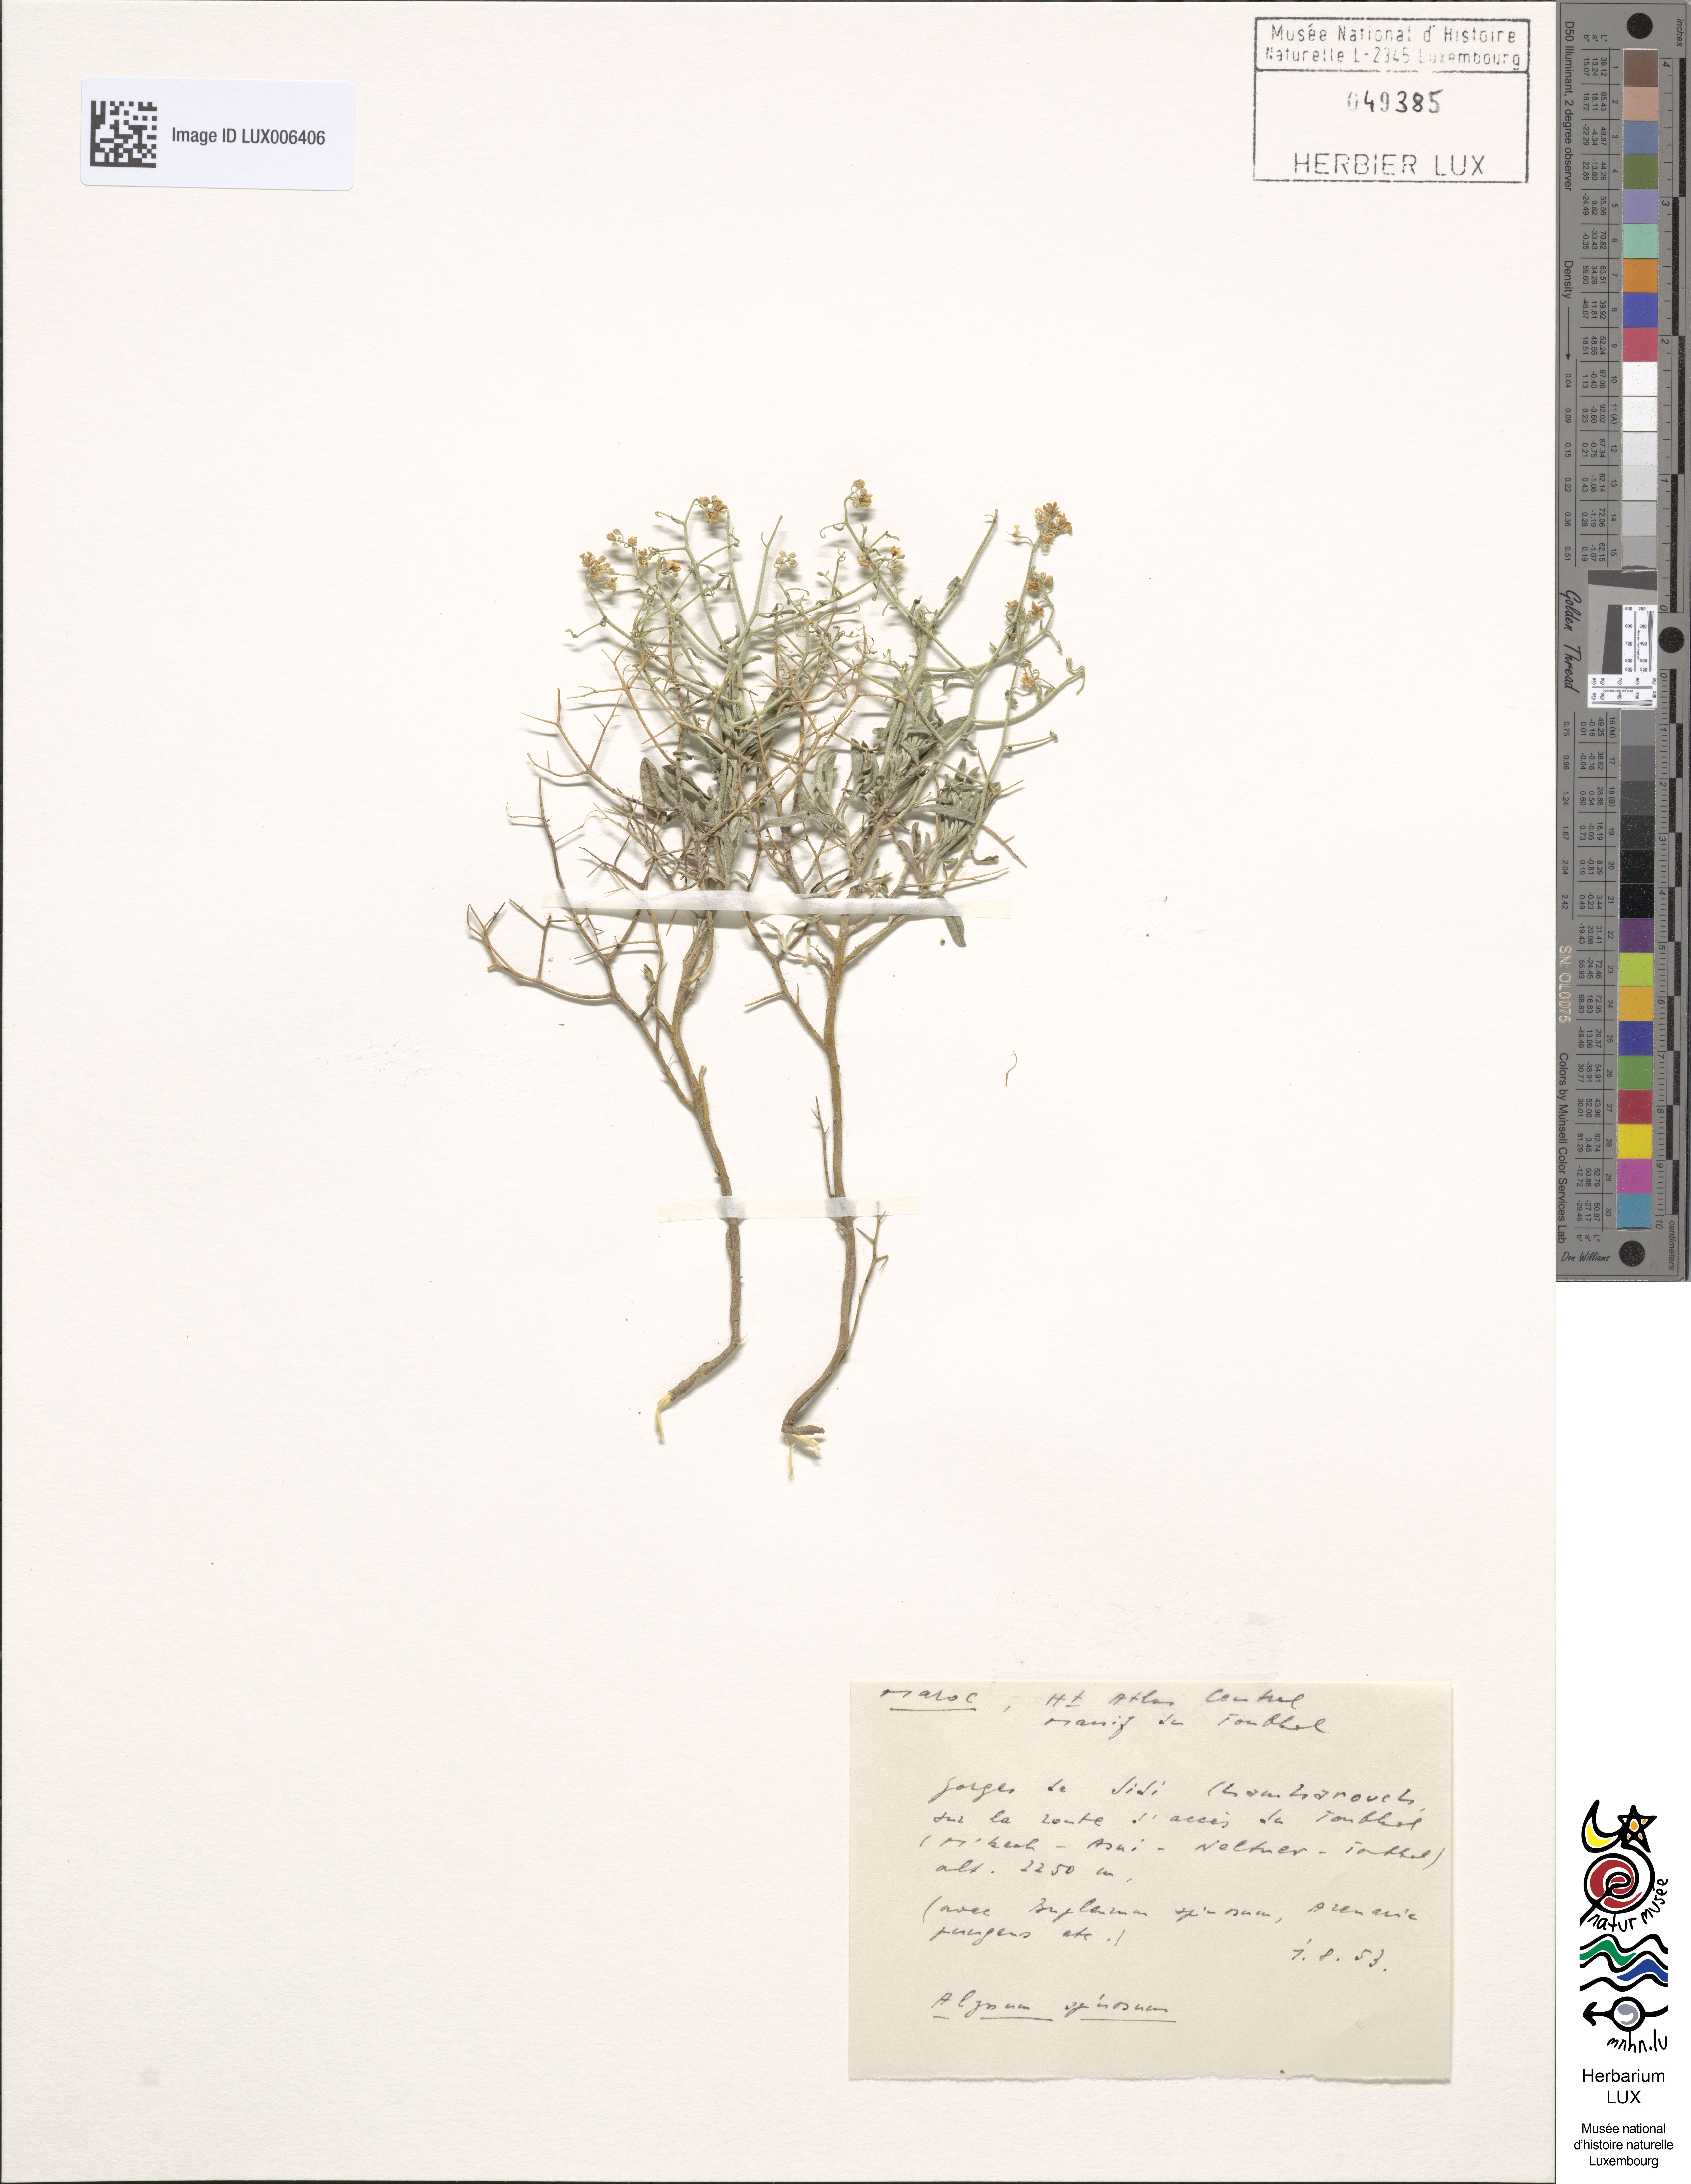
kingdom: Plantae
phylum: Tracheophyta
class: Magnoliopsida
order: Brassicales
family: Brassicaceae
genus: Hormathophylla
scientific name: Hormathophylla spinosa
